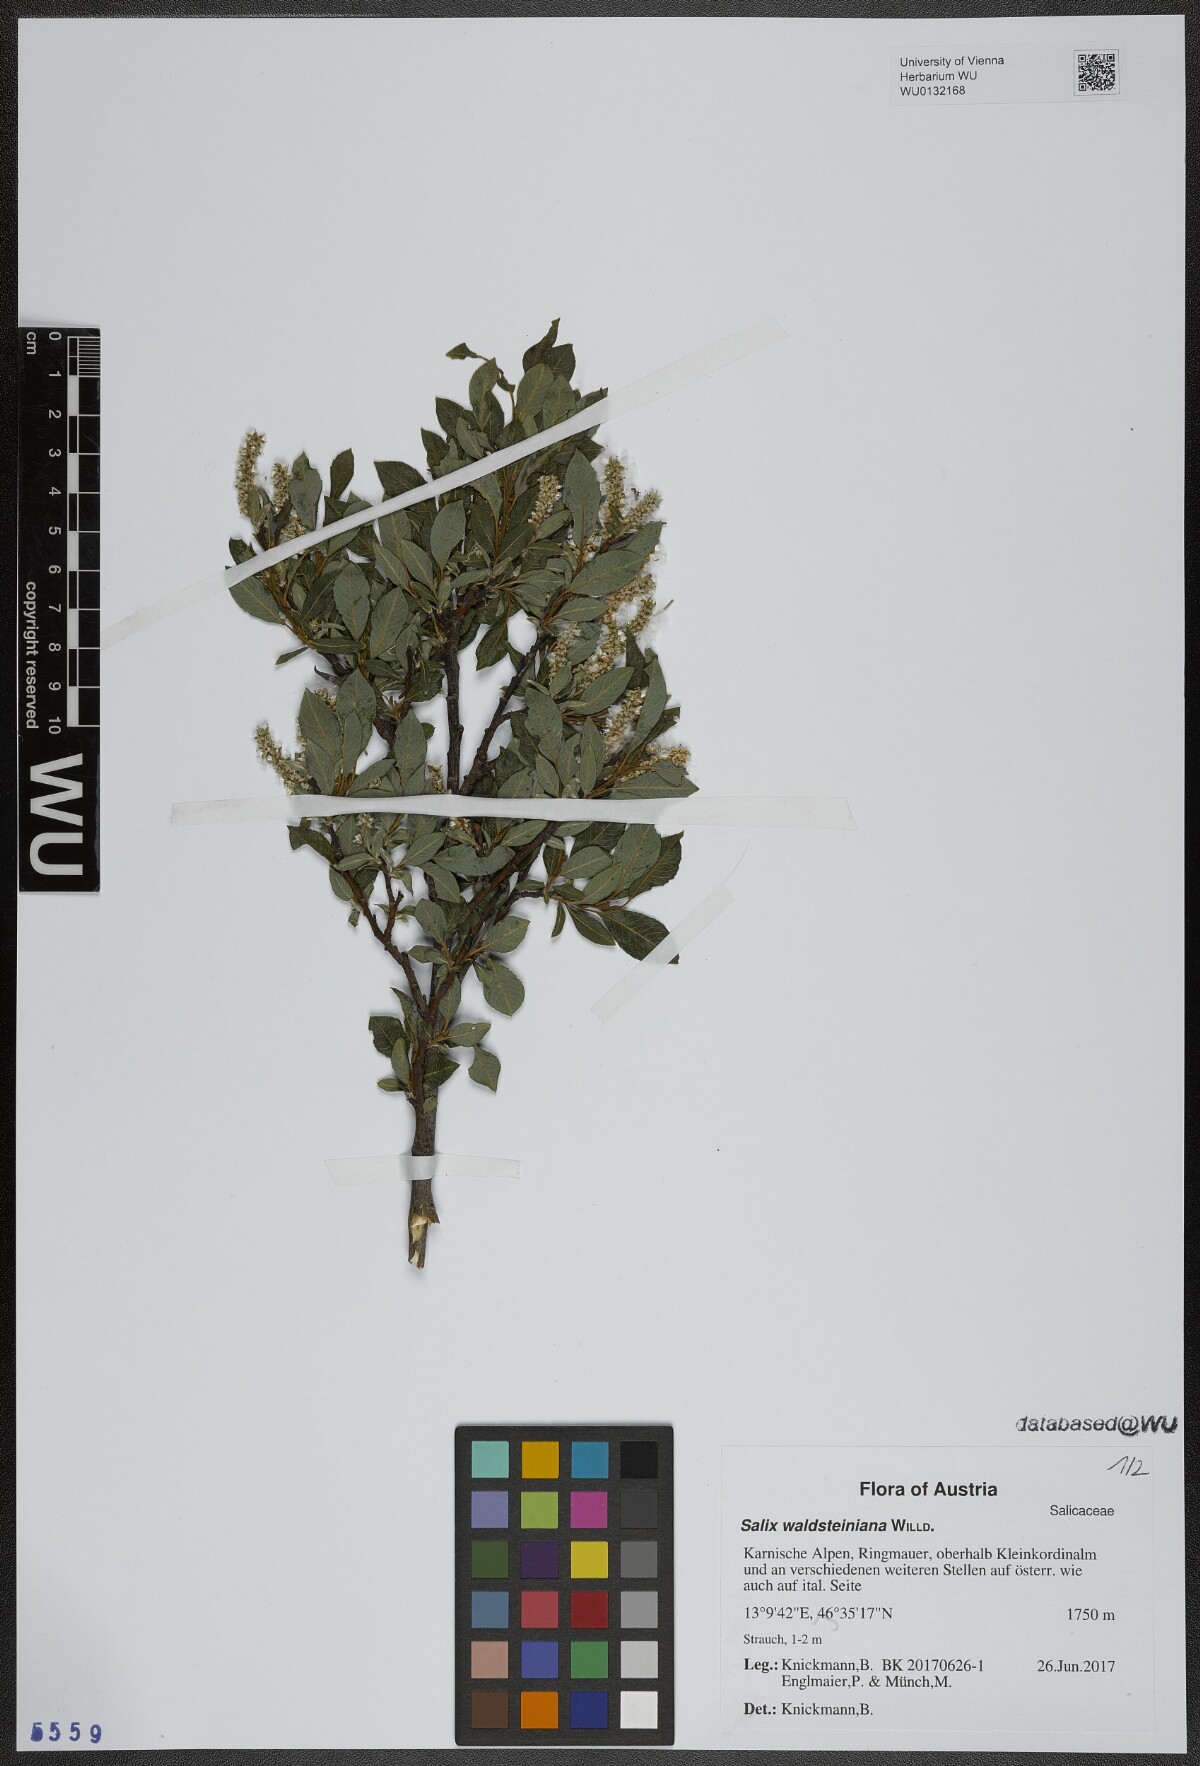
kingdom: Plantae
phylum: Tracheophyta
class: Magnoliopsida
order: Malpighiales
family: Salicaceae
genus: Salix
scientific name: Salix waldsteiniana
